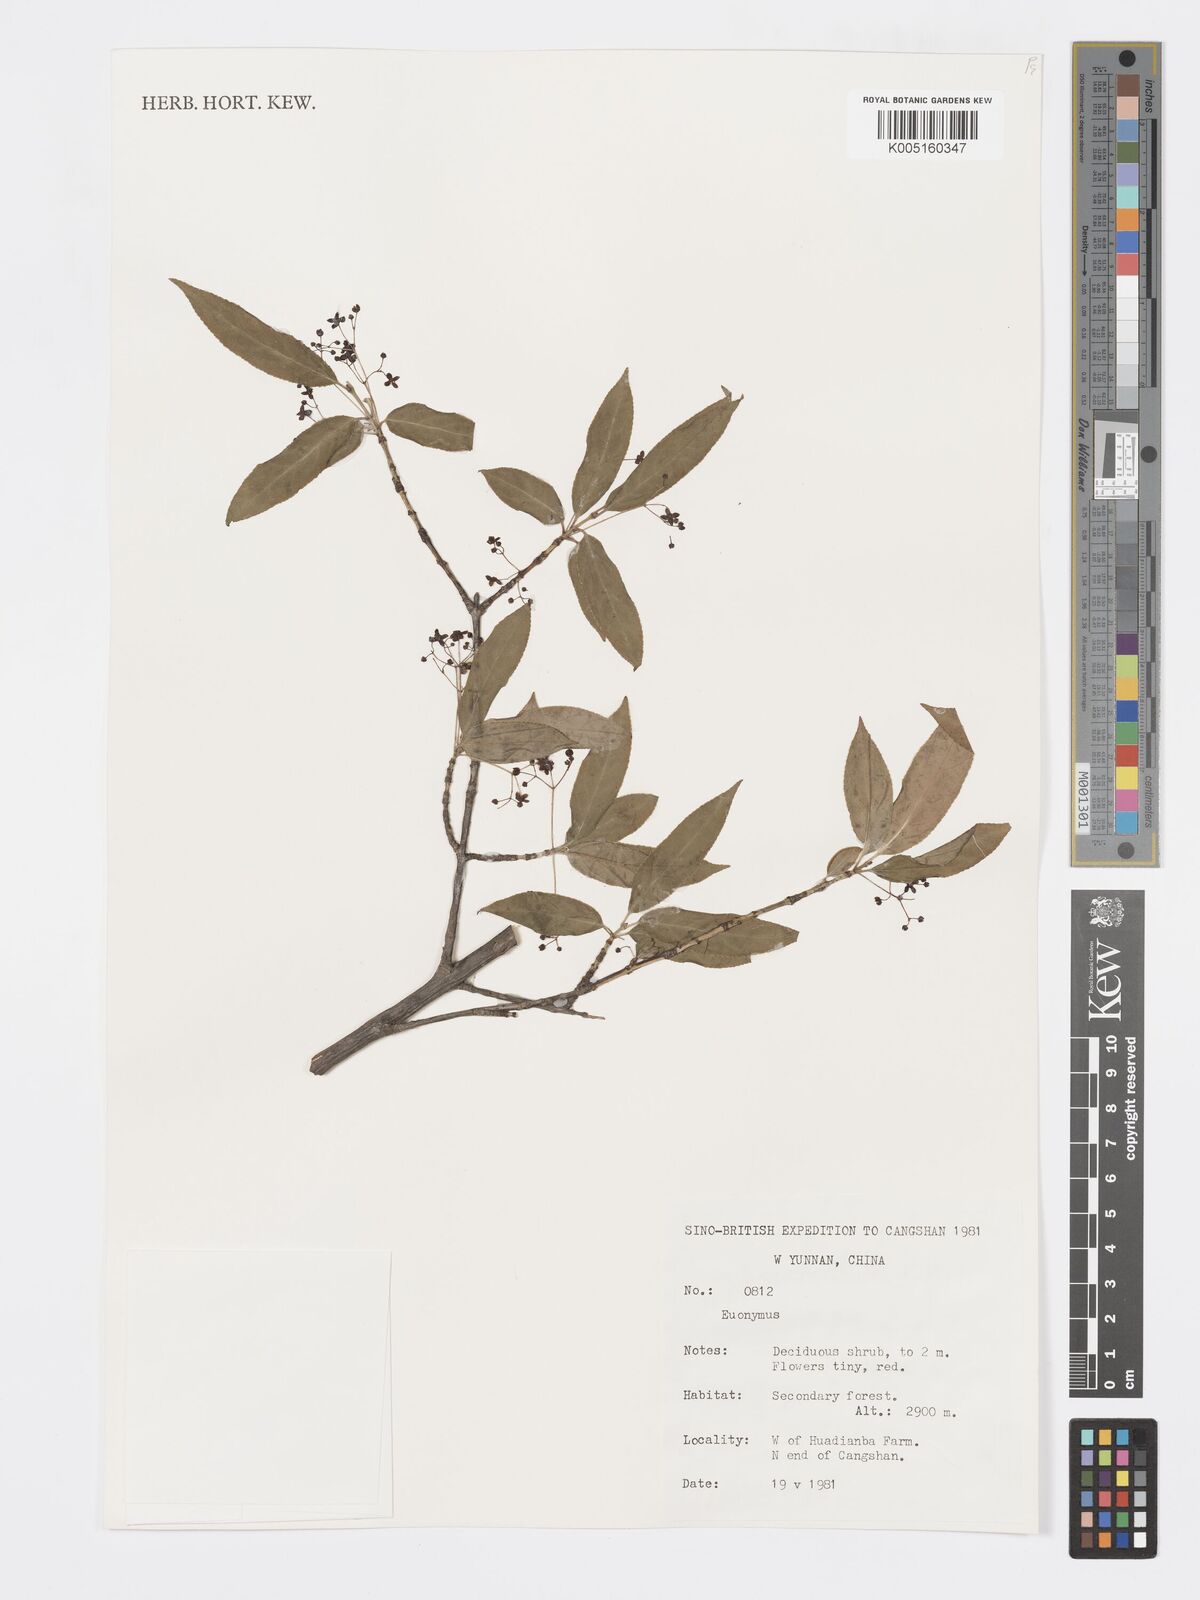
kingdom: Plantae
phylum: Tracheophyta
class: Magnoliopsida
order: Celastrales
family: Celastraceae
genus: Euonymus
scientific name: Euonymus
